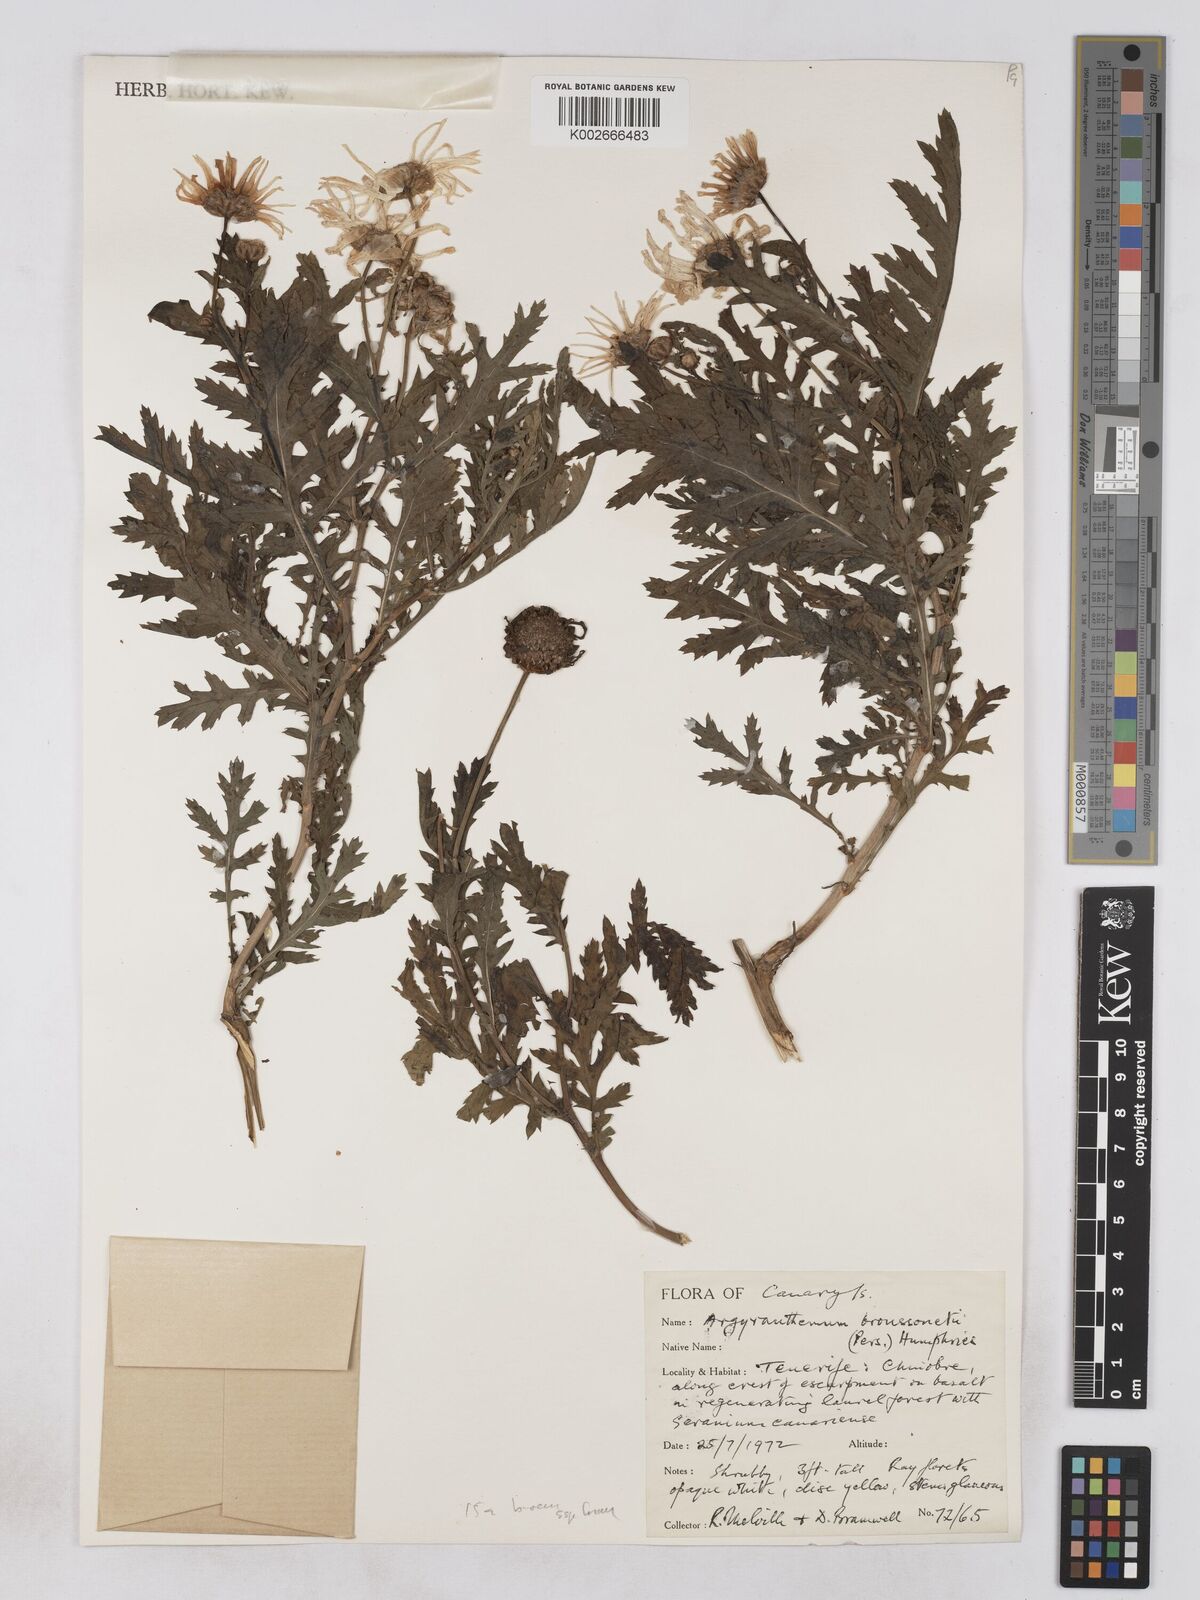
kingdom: Plantae
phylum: Tracheophyta
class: Magnoliopsida
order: Asterales
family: Asteraceae
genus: Argyranthemum
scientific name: Argyranthemum broussonetii
